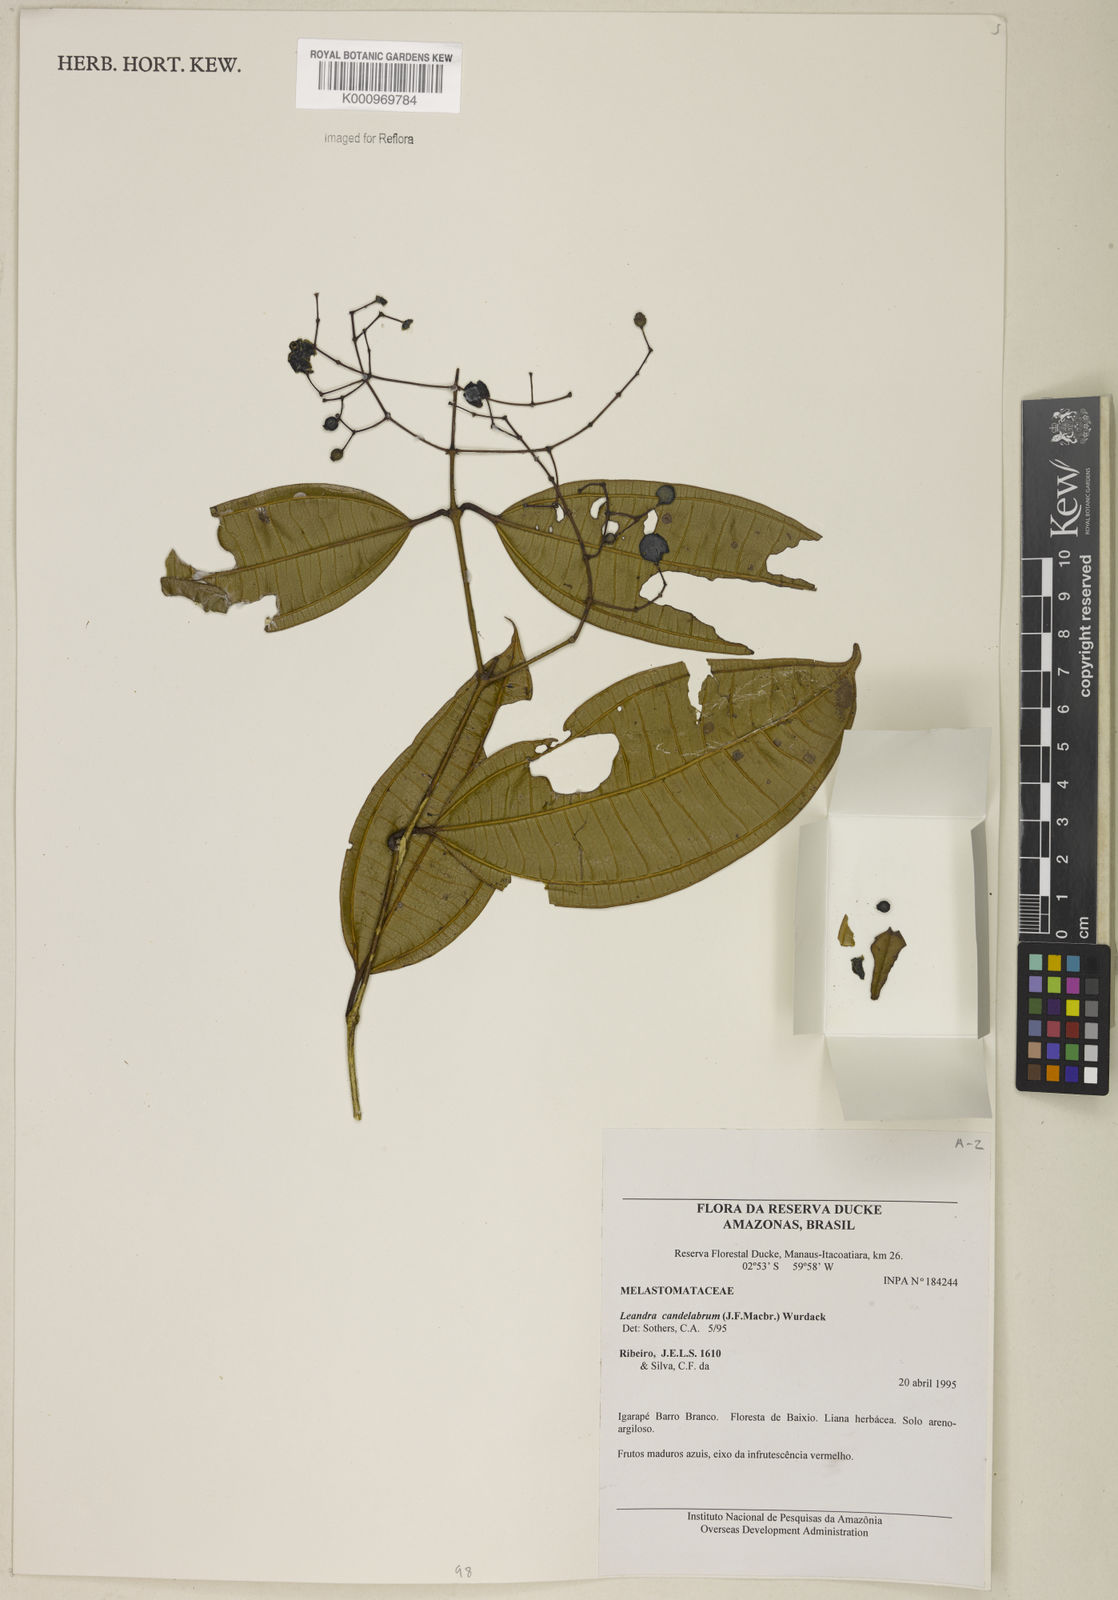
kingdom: Plantae
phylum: Tracheophyta
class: Magnoliopsida
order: Myrtales
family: Melastomataceae
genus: Miconia
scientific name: Miconia candelabrum
